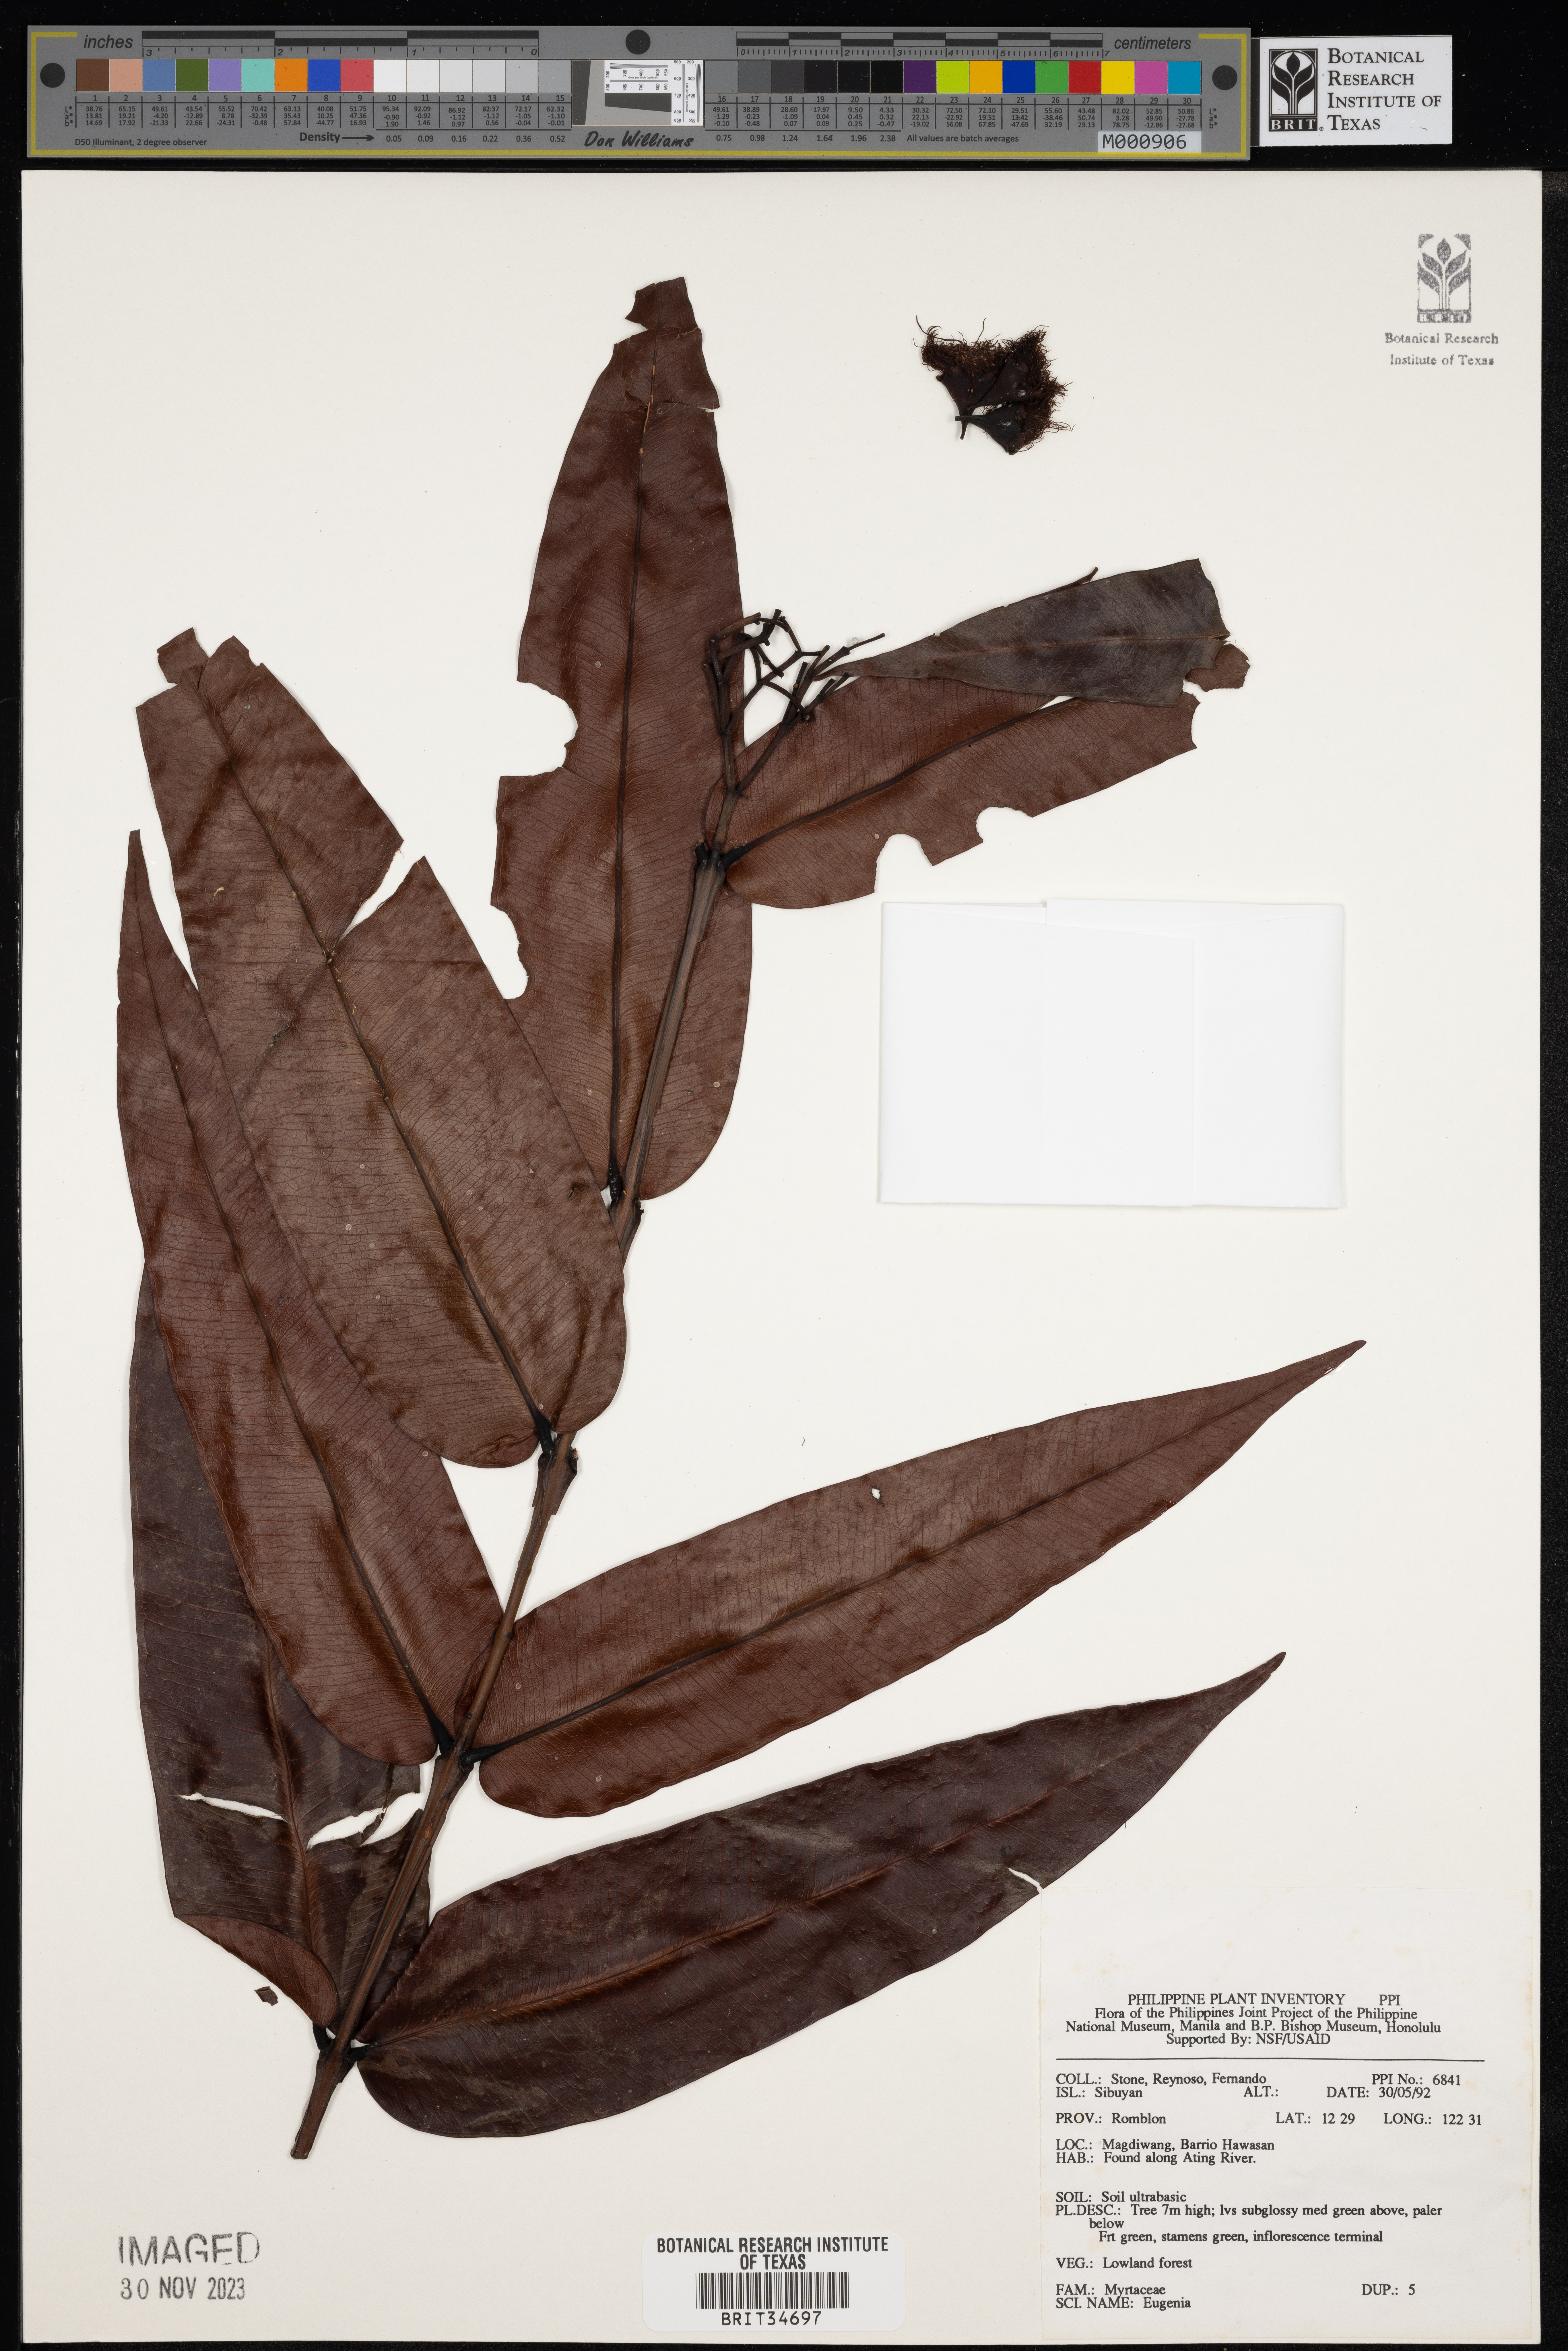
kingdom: Plantae
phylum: Tracheophyta
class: Magnoliopsida
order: Myrtales
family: Myrtaceae
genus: Eugenia
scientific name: Eugenia
